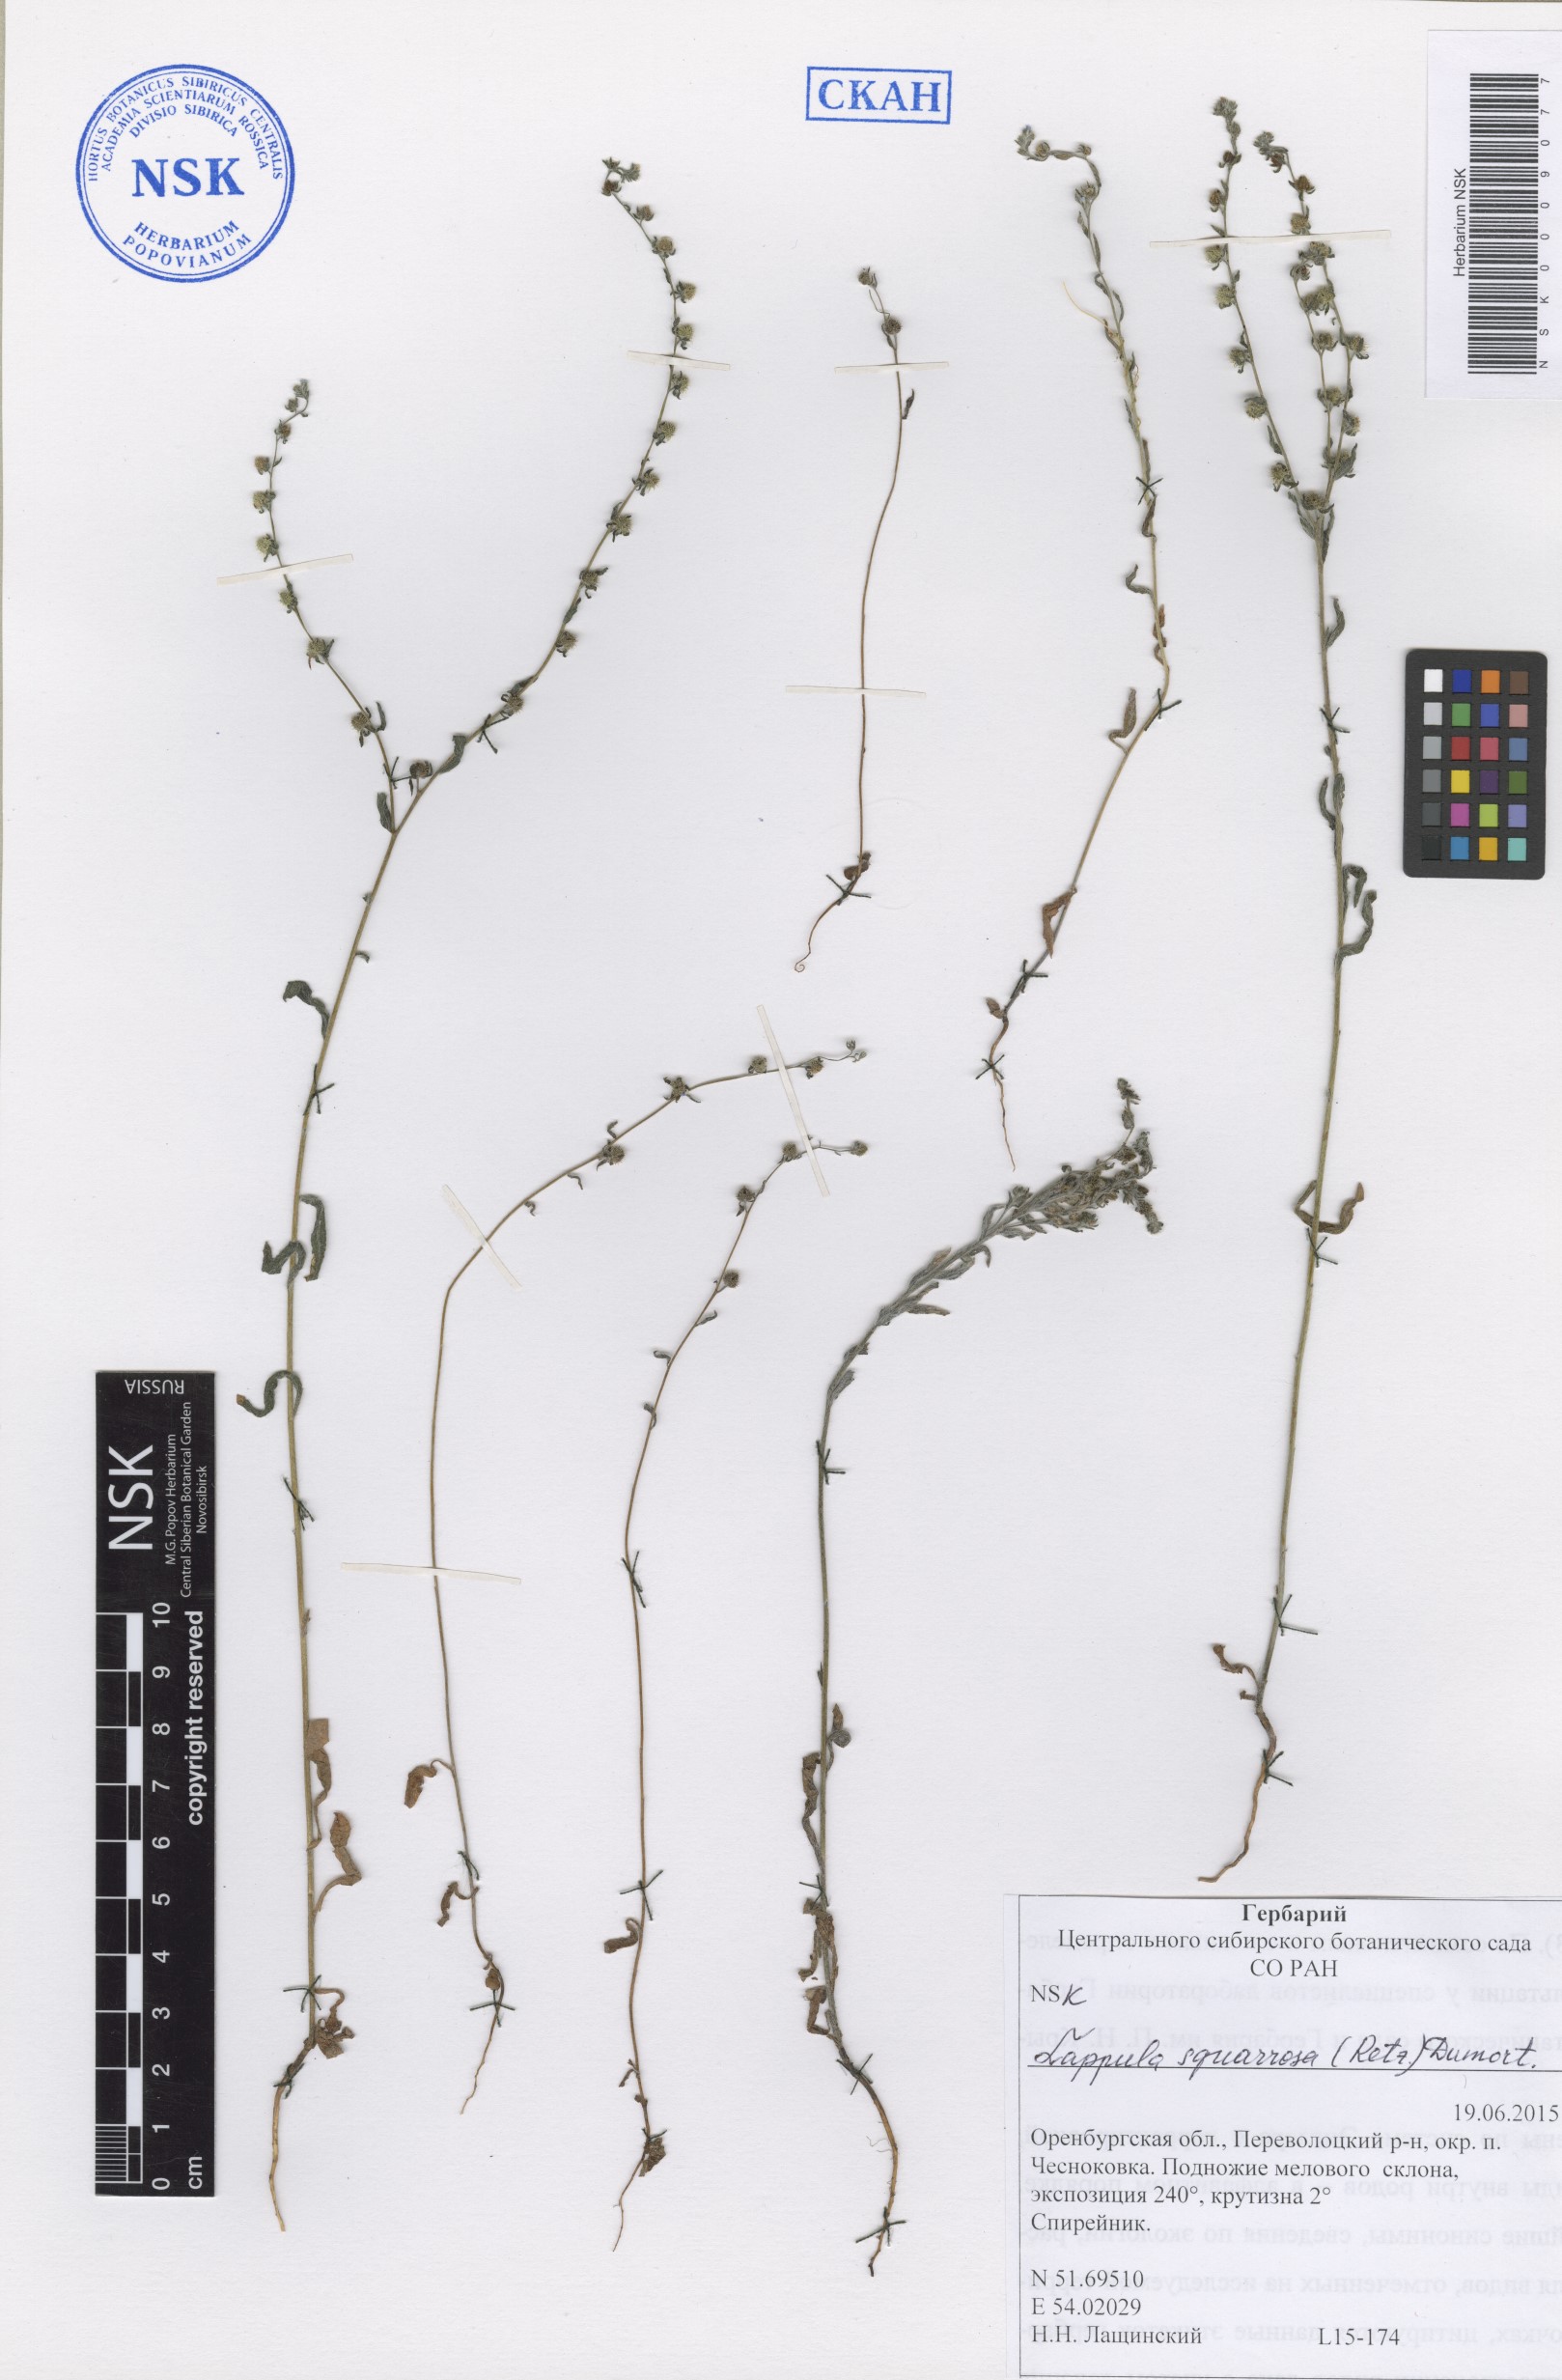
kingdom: Plantae
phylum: Tracheophyta
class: Magnoliopsida
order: Boraginales
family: Boraginaceae
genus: Lappula
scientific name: Lappula squarrosa
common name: European stickseed
